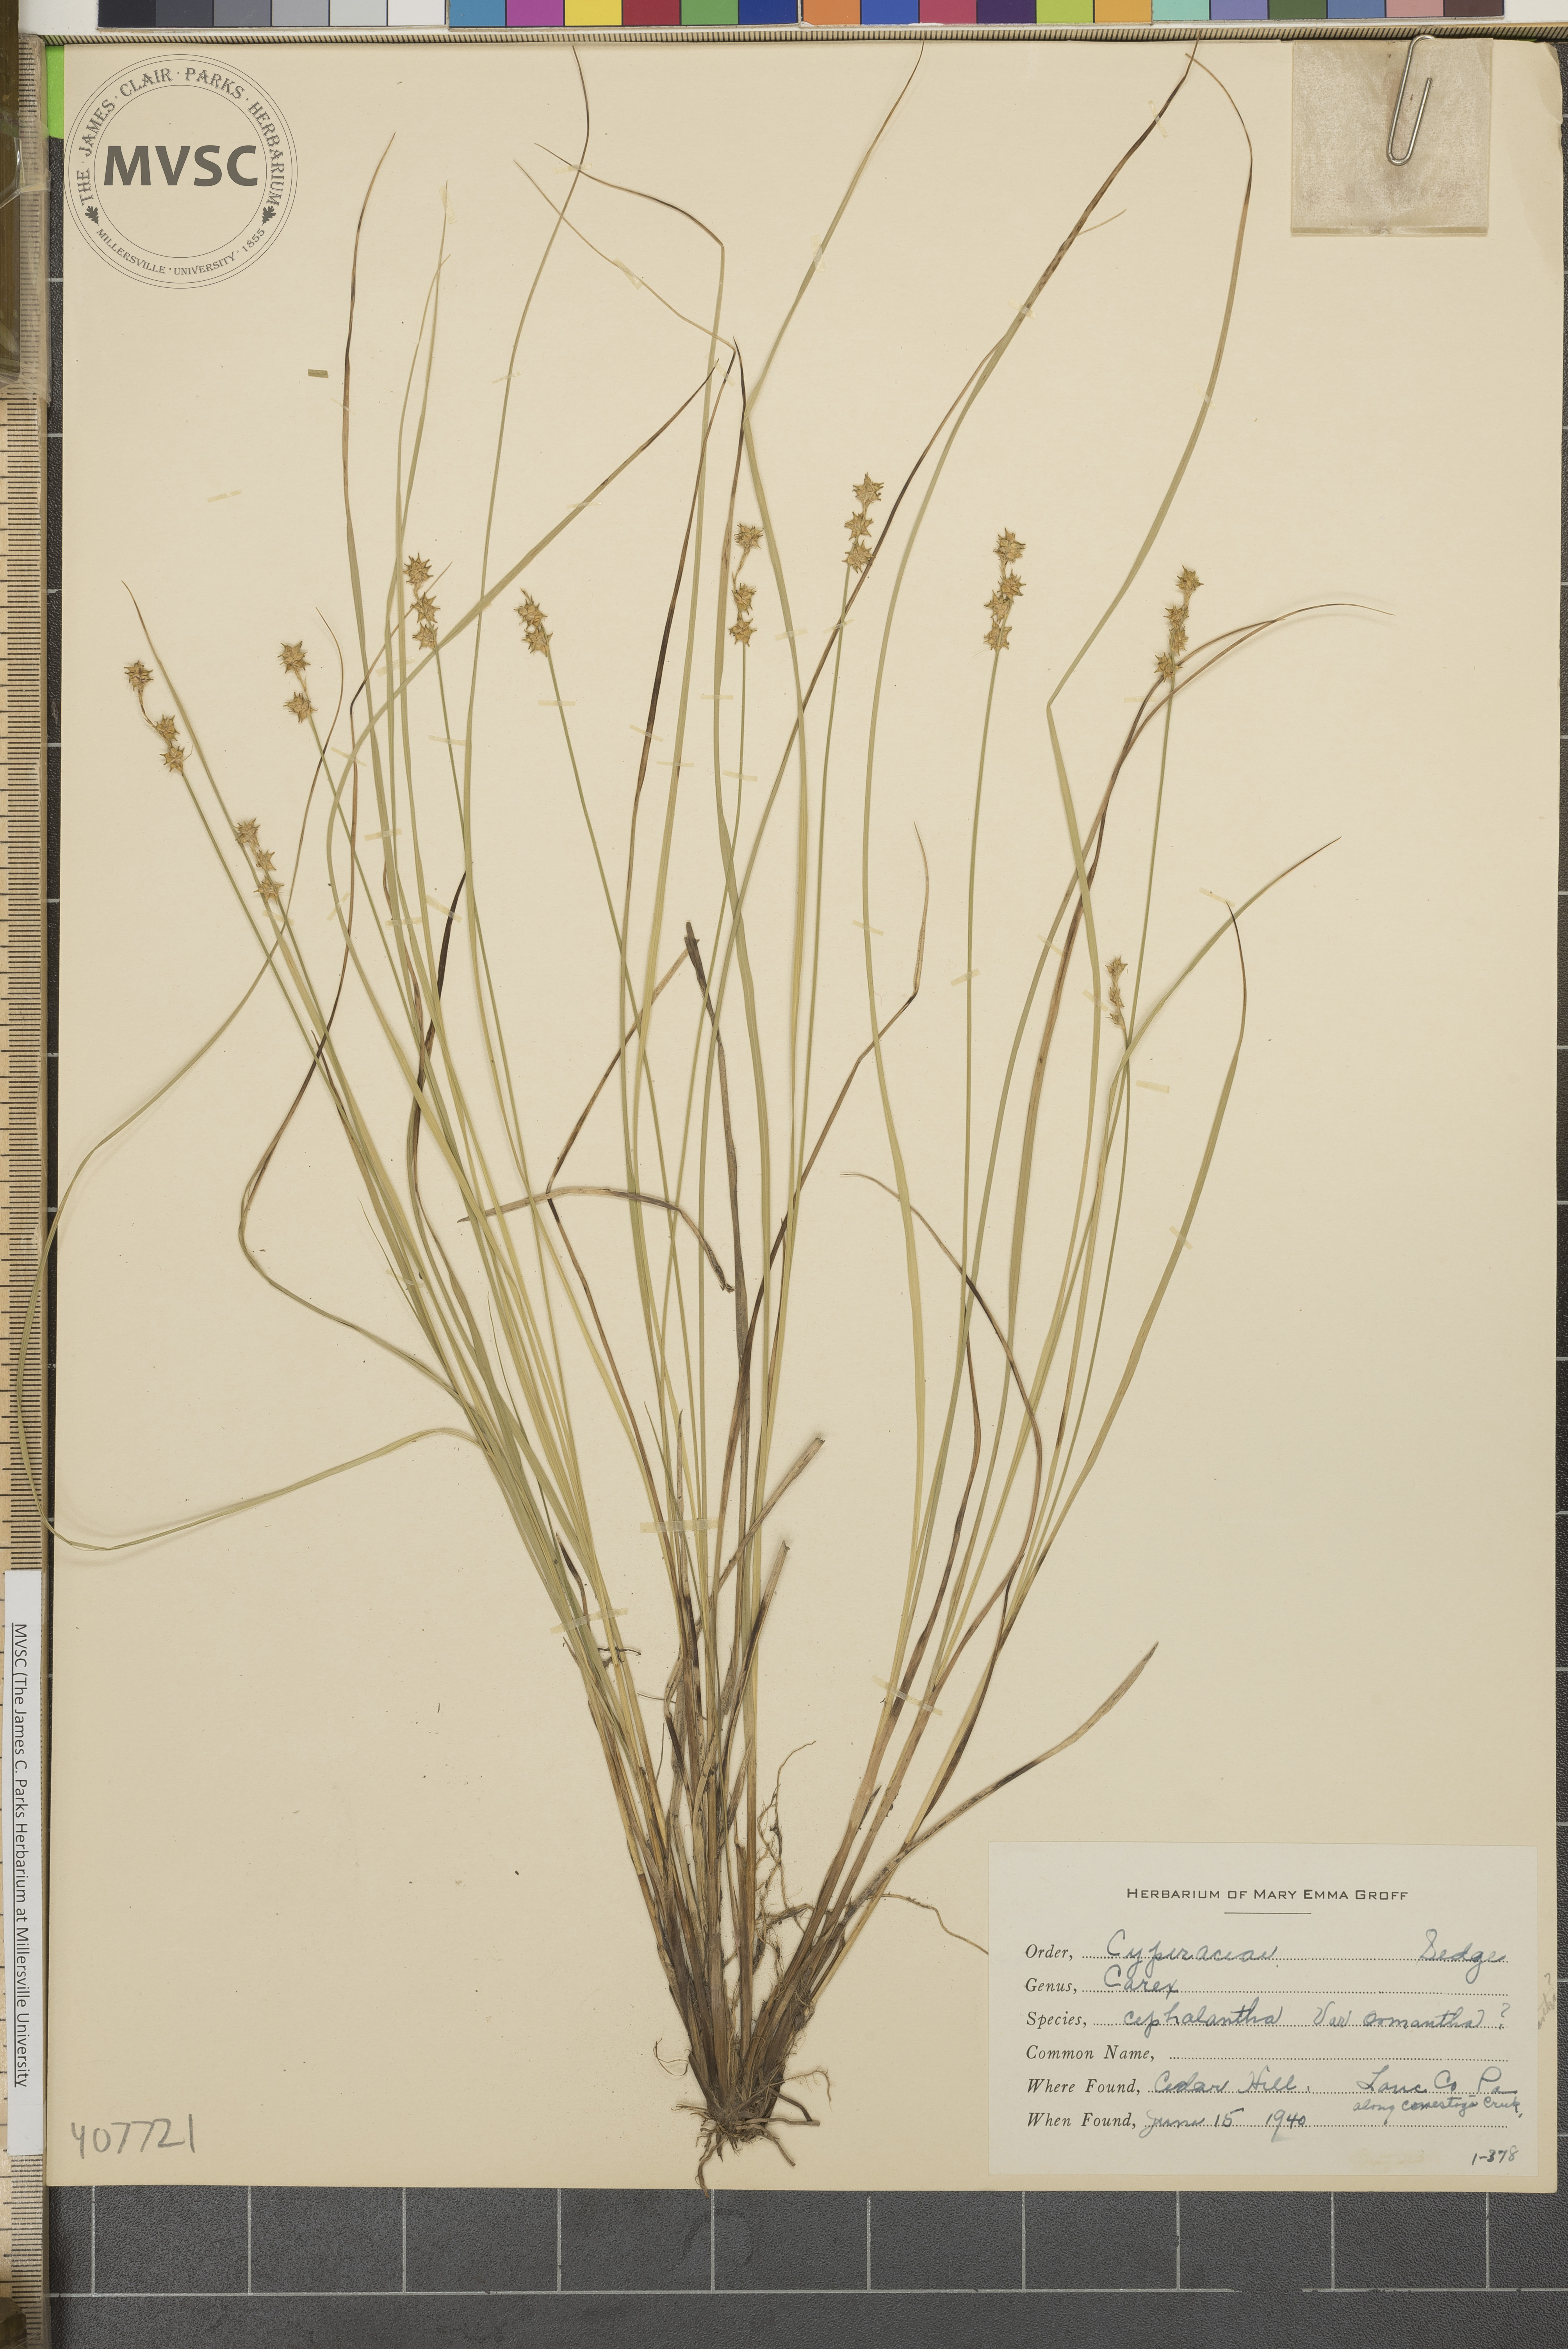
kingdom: Plantae
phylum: Tracheophyta
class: Liliopsida
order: Poales
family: Cyperaceae
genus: Carex
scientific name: Carex echinata
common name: Star sedge
